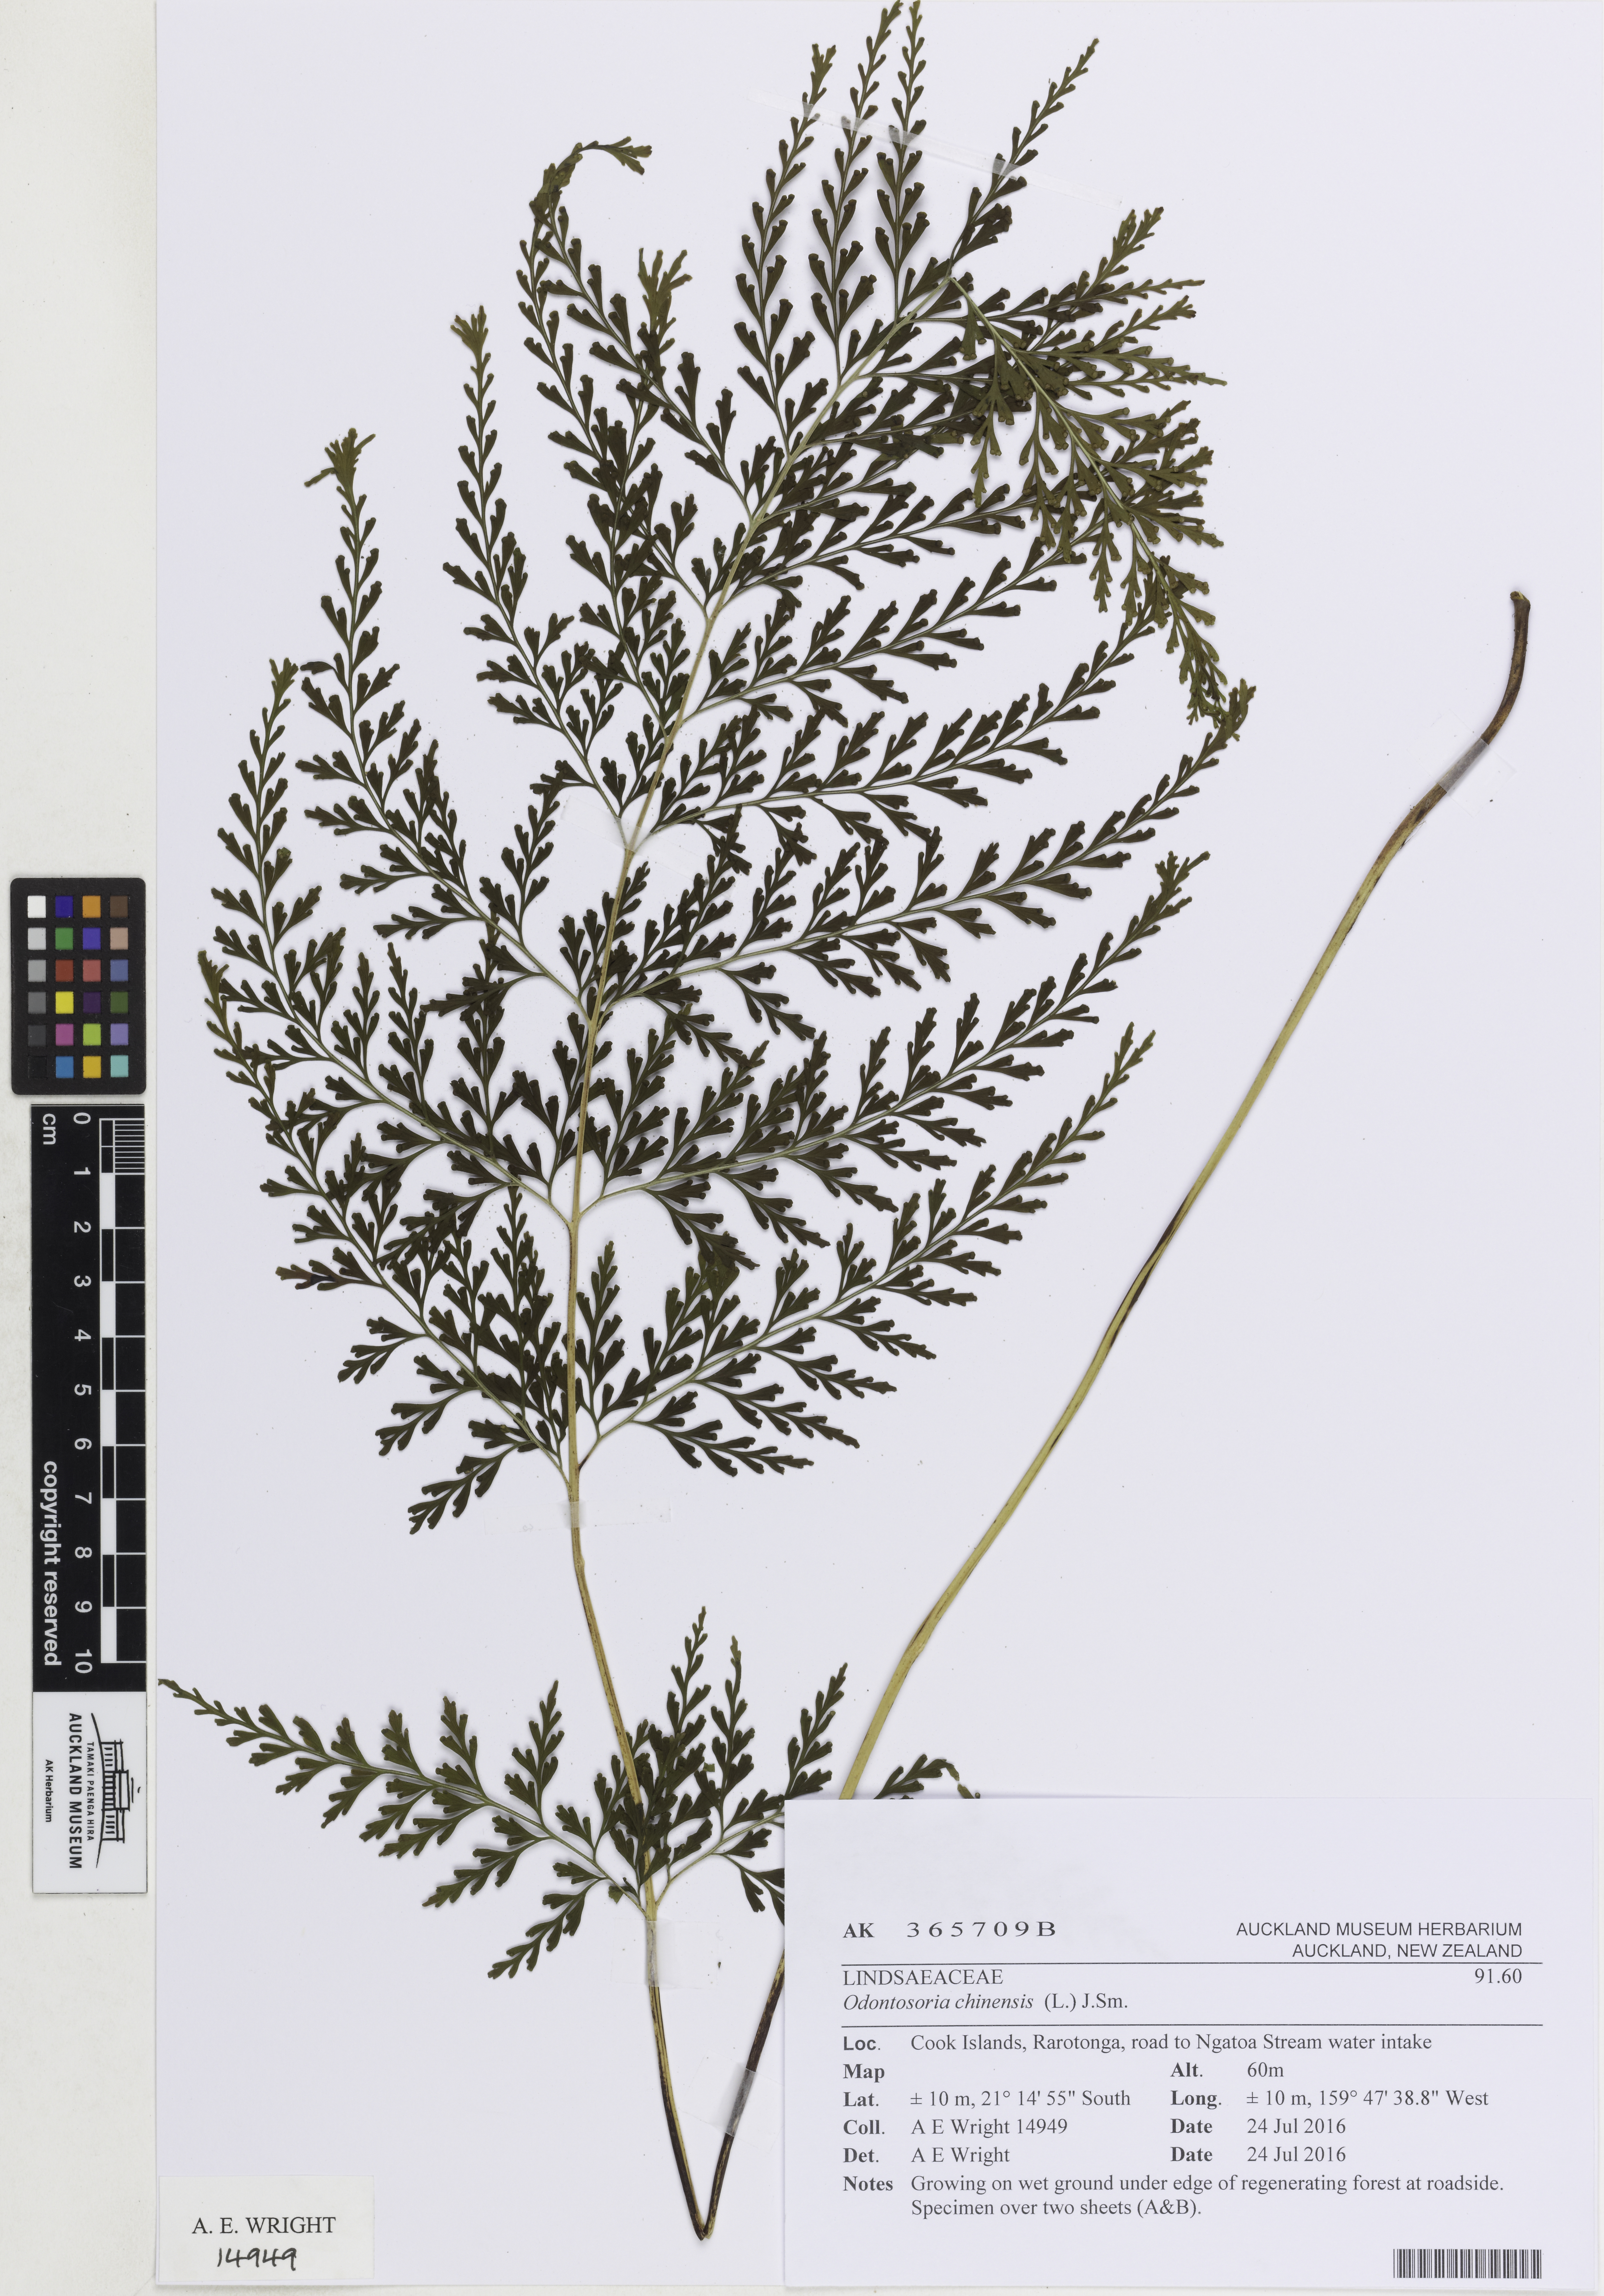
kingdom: Plantae
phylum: Tracheophyta
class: Polypodiopsida
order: Polypodiales
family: Lindsaeaceae
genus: Odontosoria
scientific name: Odontosoria chinensis
